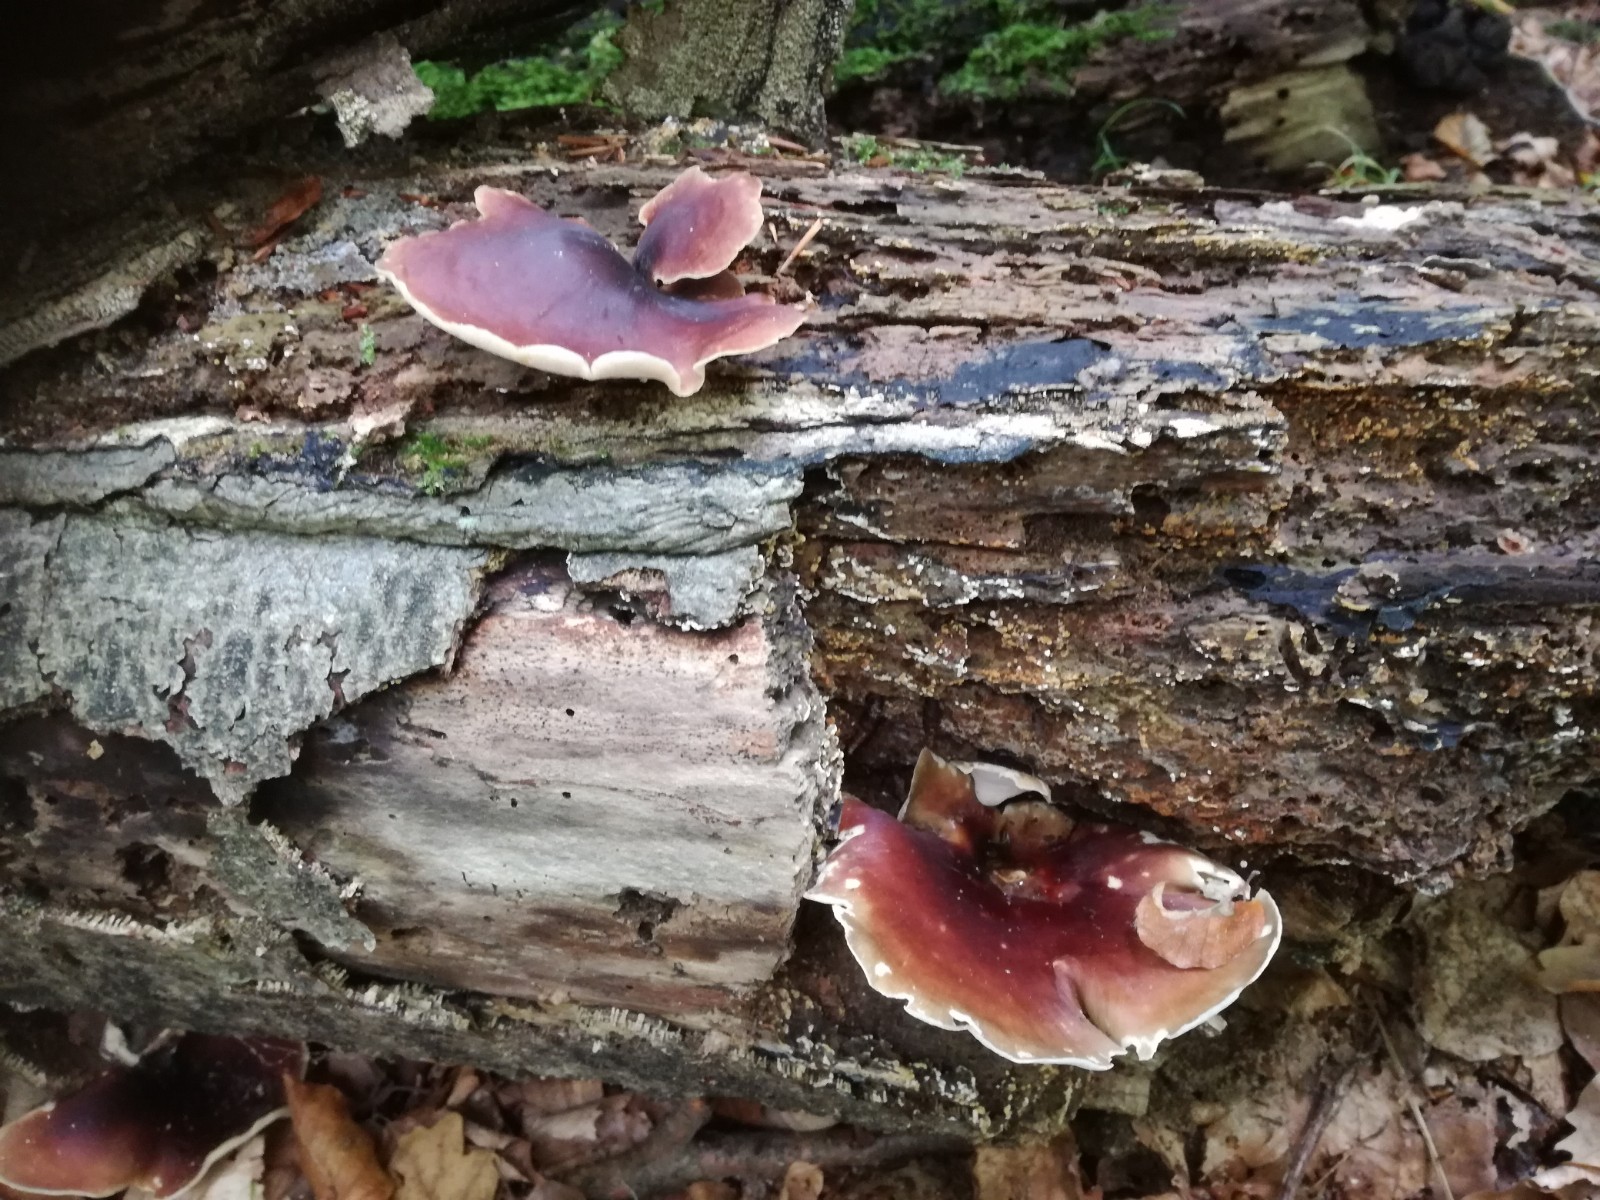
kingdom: Fungi
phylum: Basidiomycota
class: Agaricomycetes
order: Polyporales
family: Polyporaceae
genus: Picipes
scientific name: Picipes badius
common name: kastaniebrun stilkporesvamp
